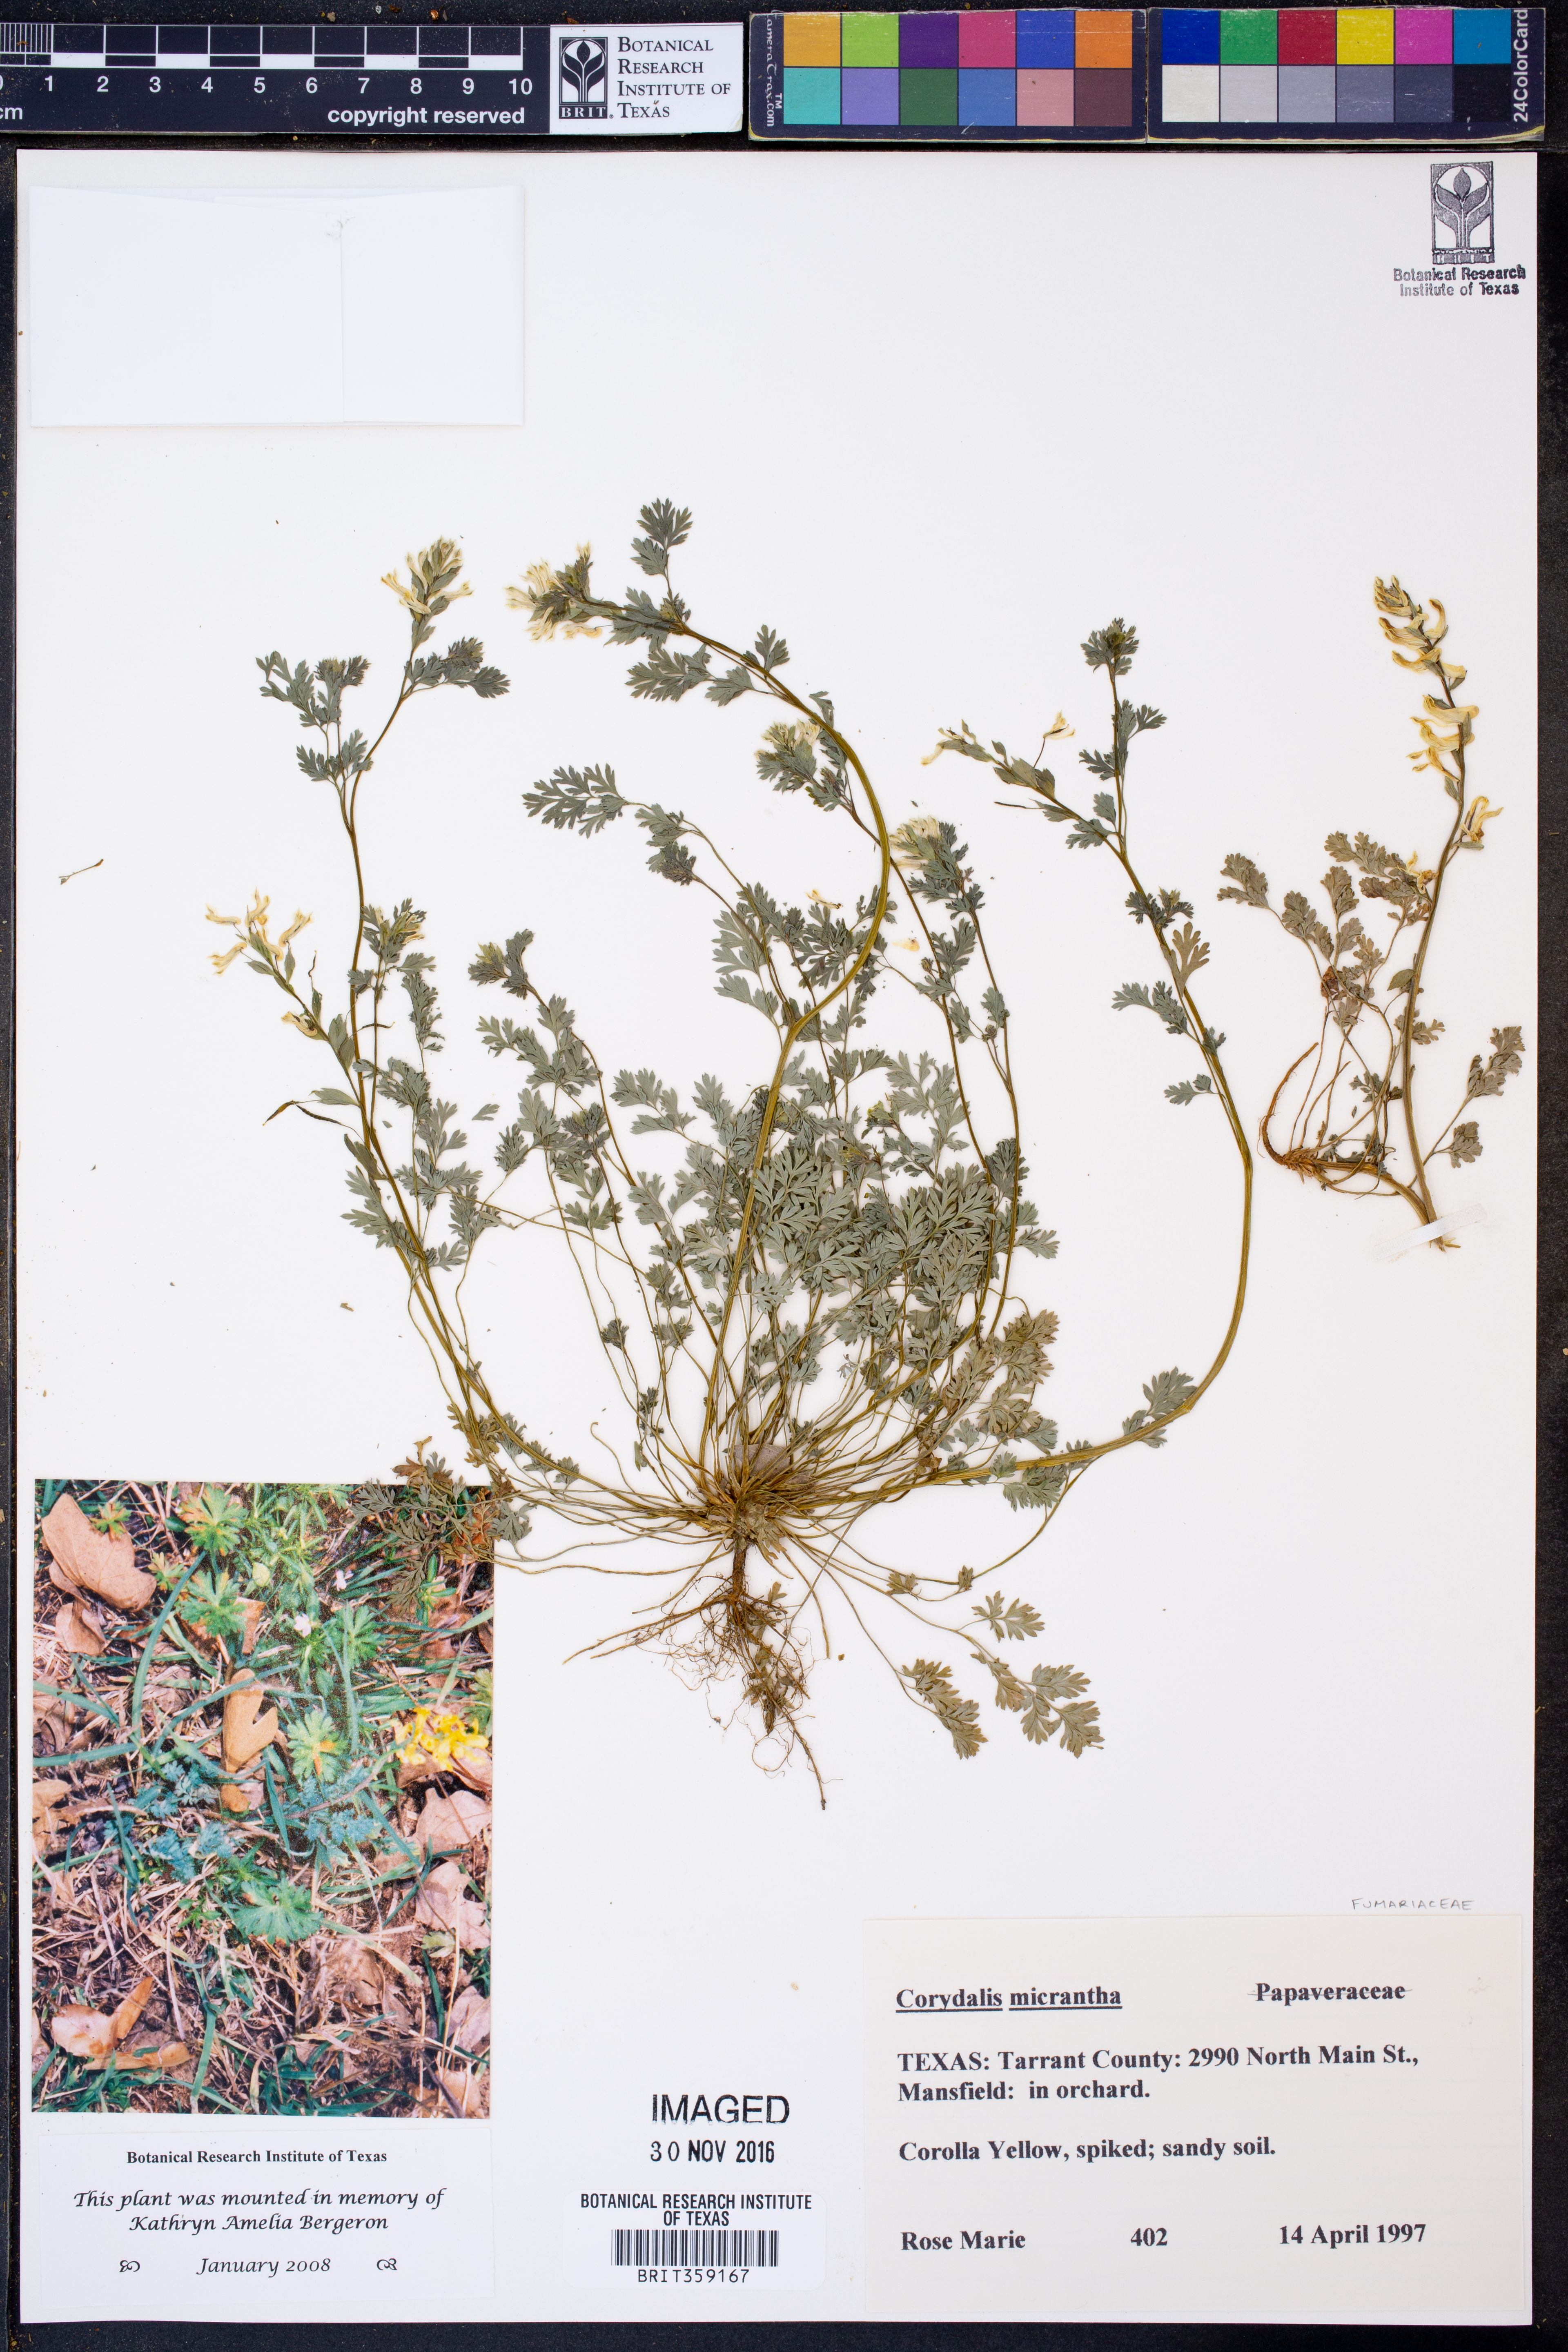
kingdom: Plantae
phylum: Tracheophyta
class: Magnoliopsida
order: Ranunculales
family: Papaveraceae
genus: Corydalis
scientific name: Corydalis micrantha
